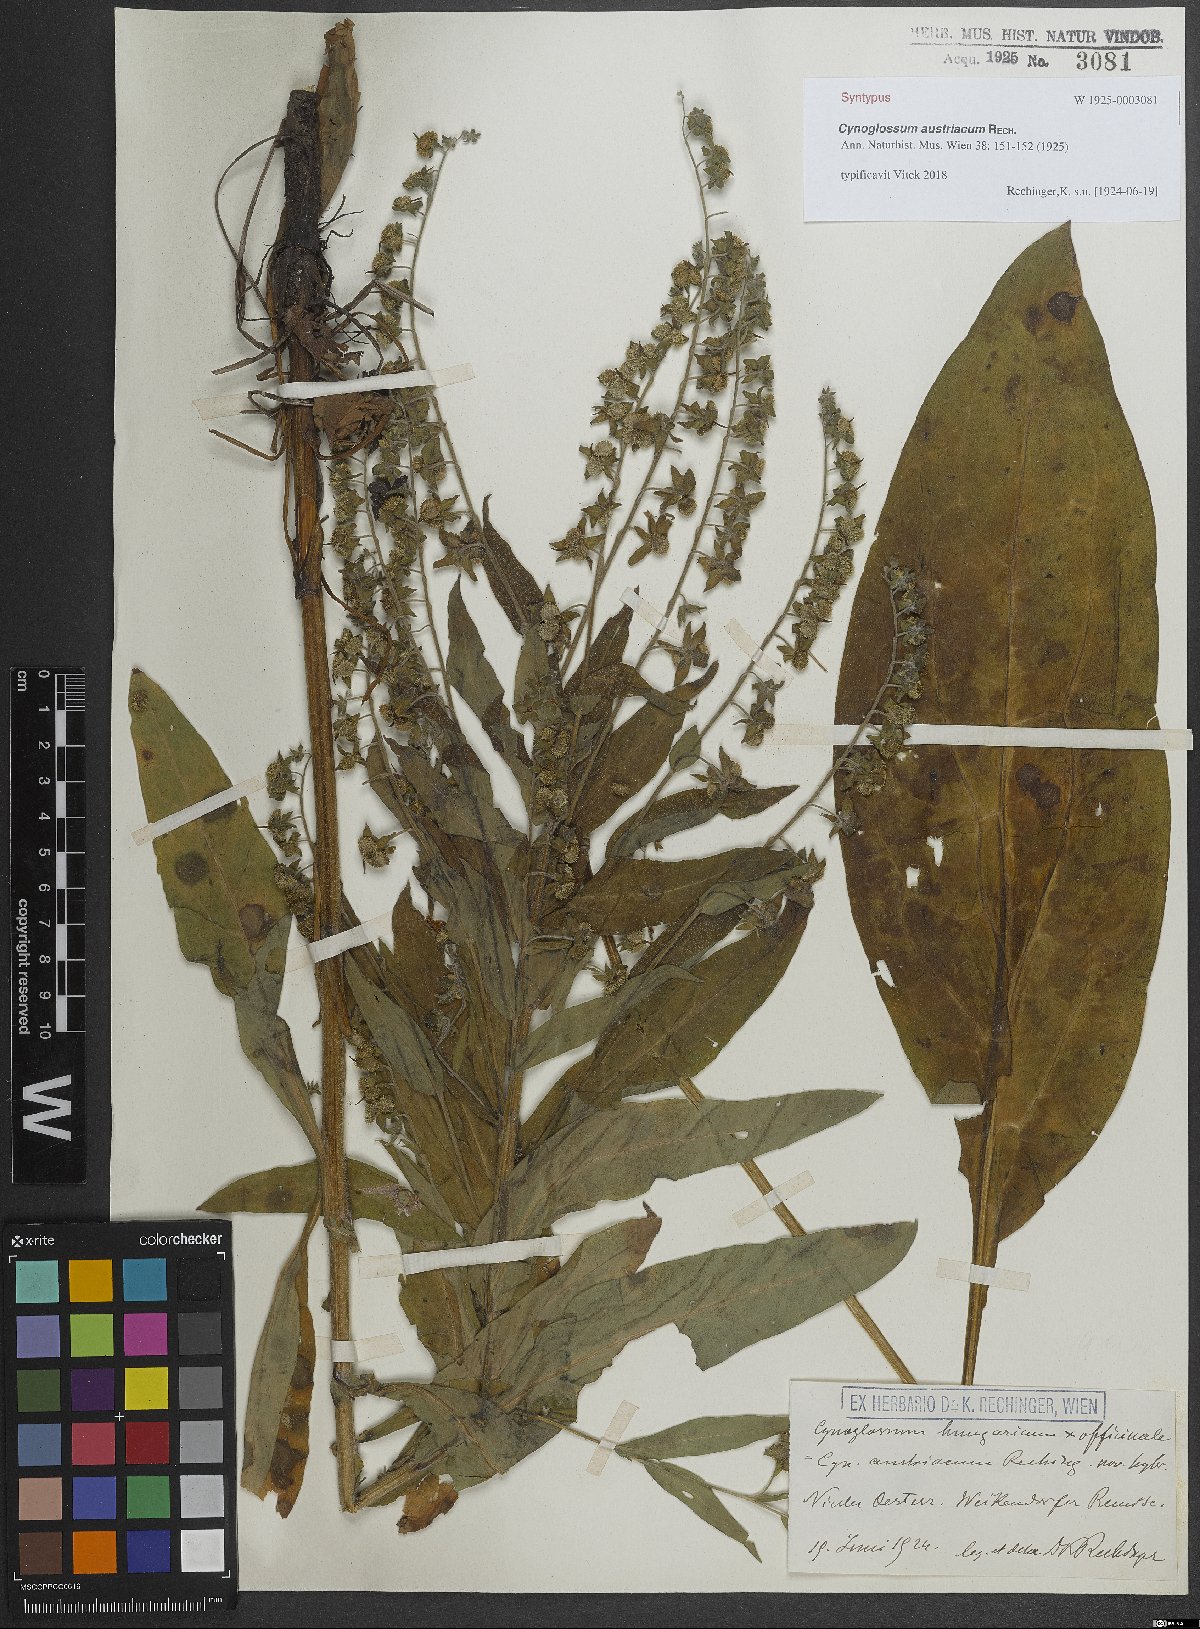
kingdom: Plantae
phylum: Tracheophyta
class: Magnoliopsida
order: Boraginales
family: Boraginaceae
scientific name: Boraginaceae
